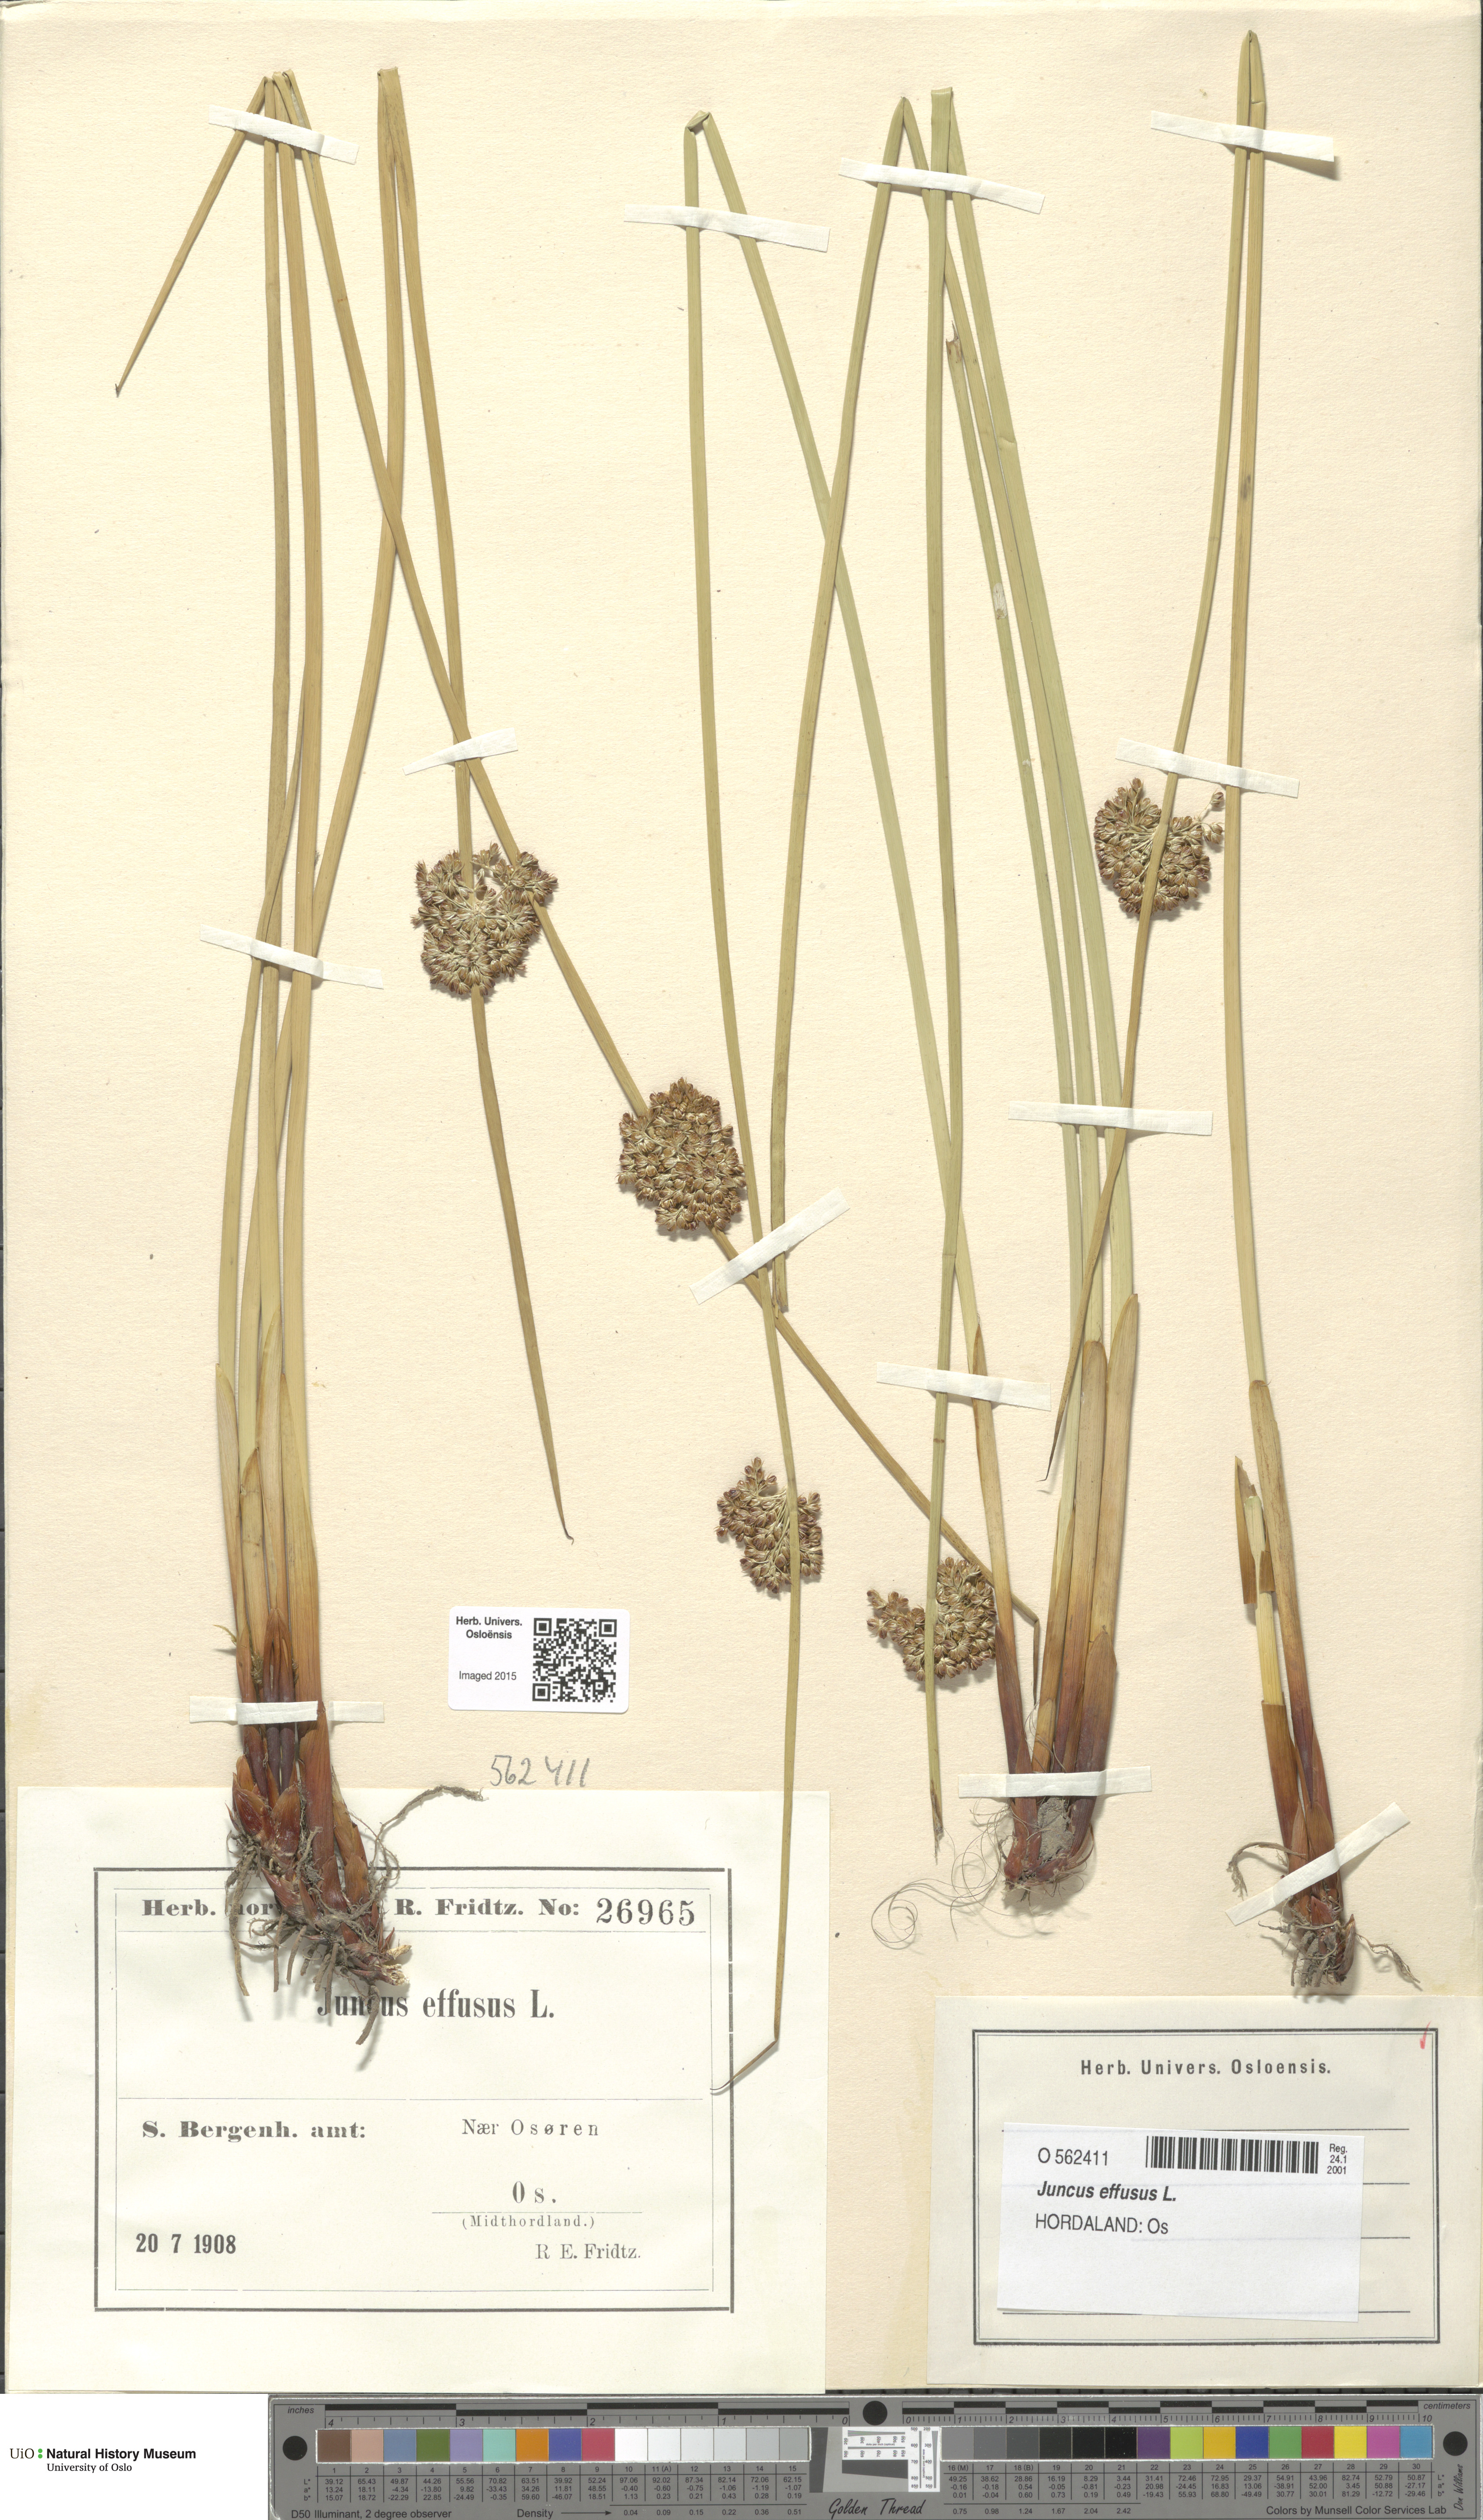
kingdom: Plantae
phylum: Tracheophyta
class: Liliopsida
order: Poales
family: Juncaceae
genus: Juncus
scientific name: Juncus effusus
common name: Soft rush
